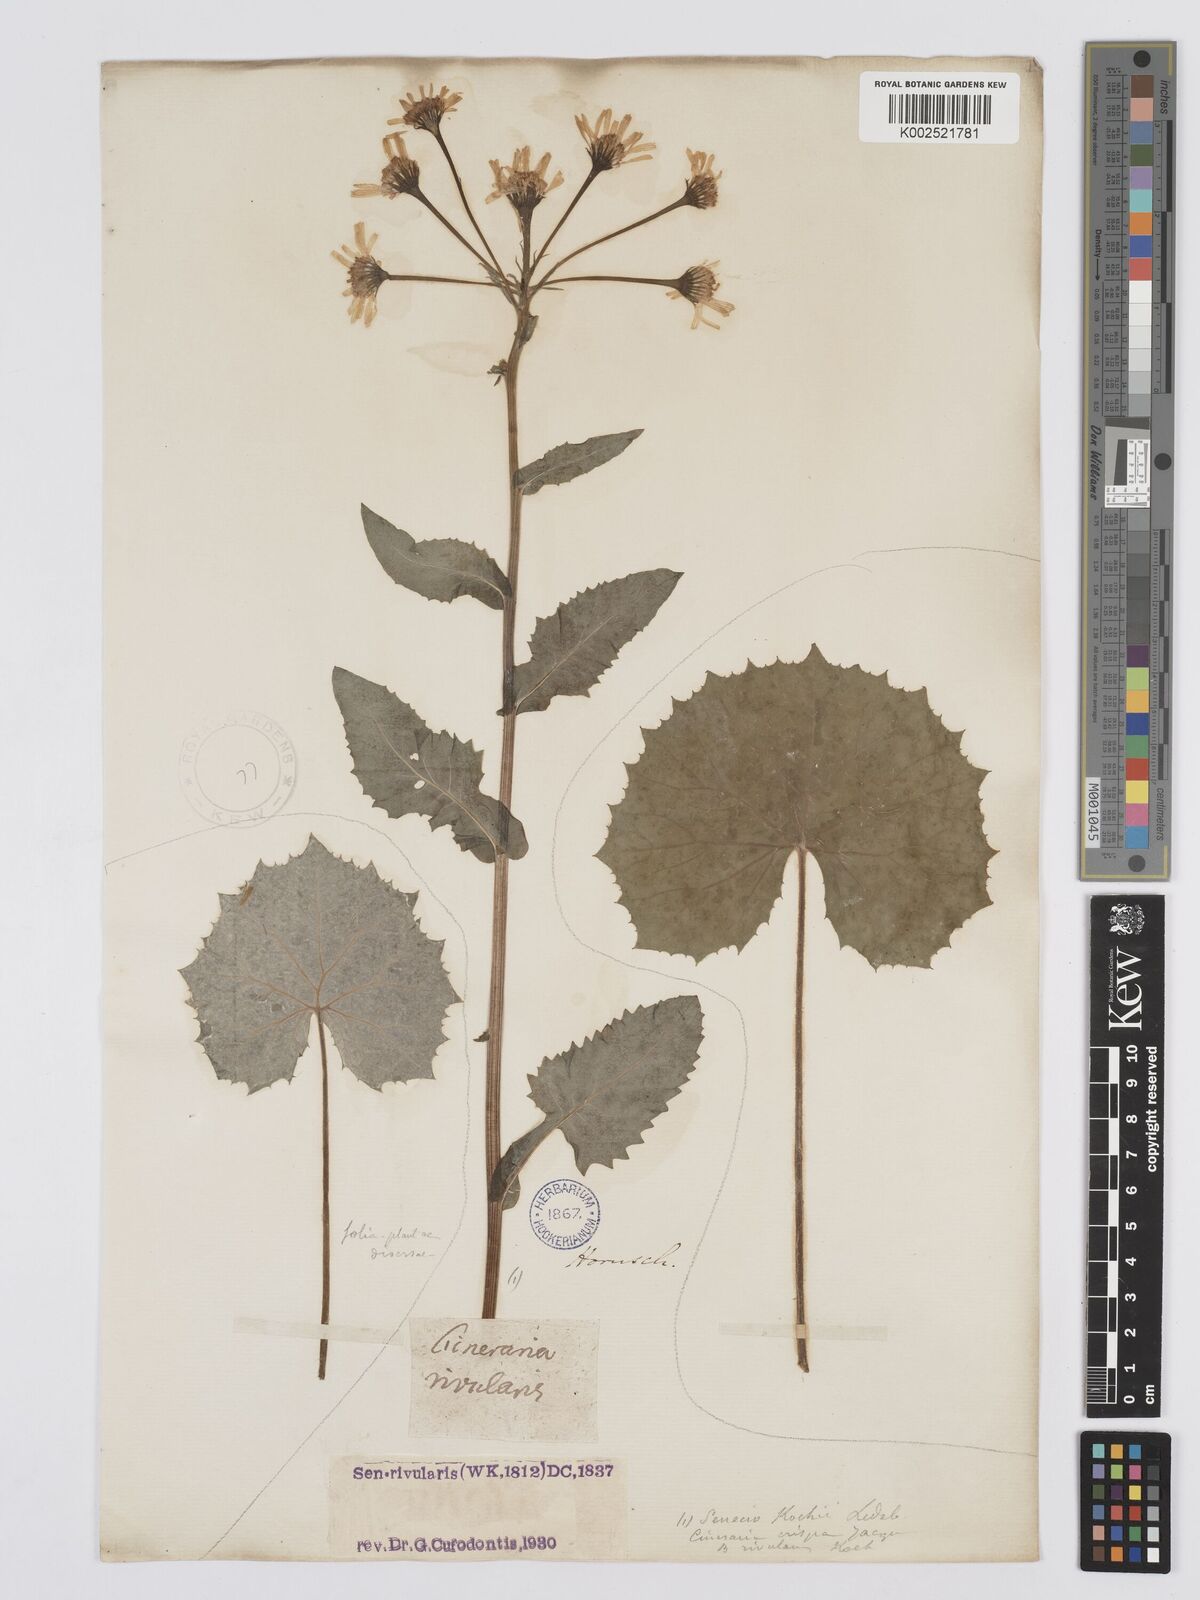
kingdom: Plantae
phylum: Tracheophyta
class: Magnoliopsida
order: Asterales
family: Asteraceae
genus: Tephroseris
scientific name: Tephroseris crispa
